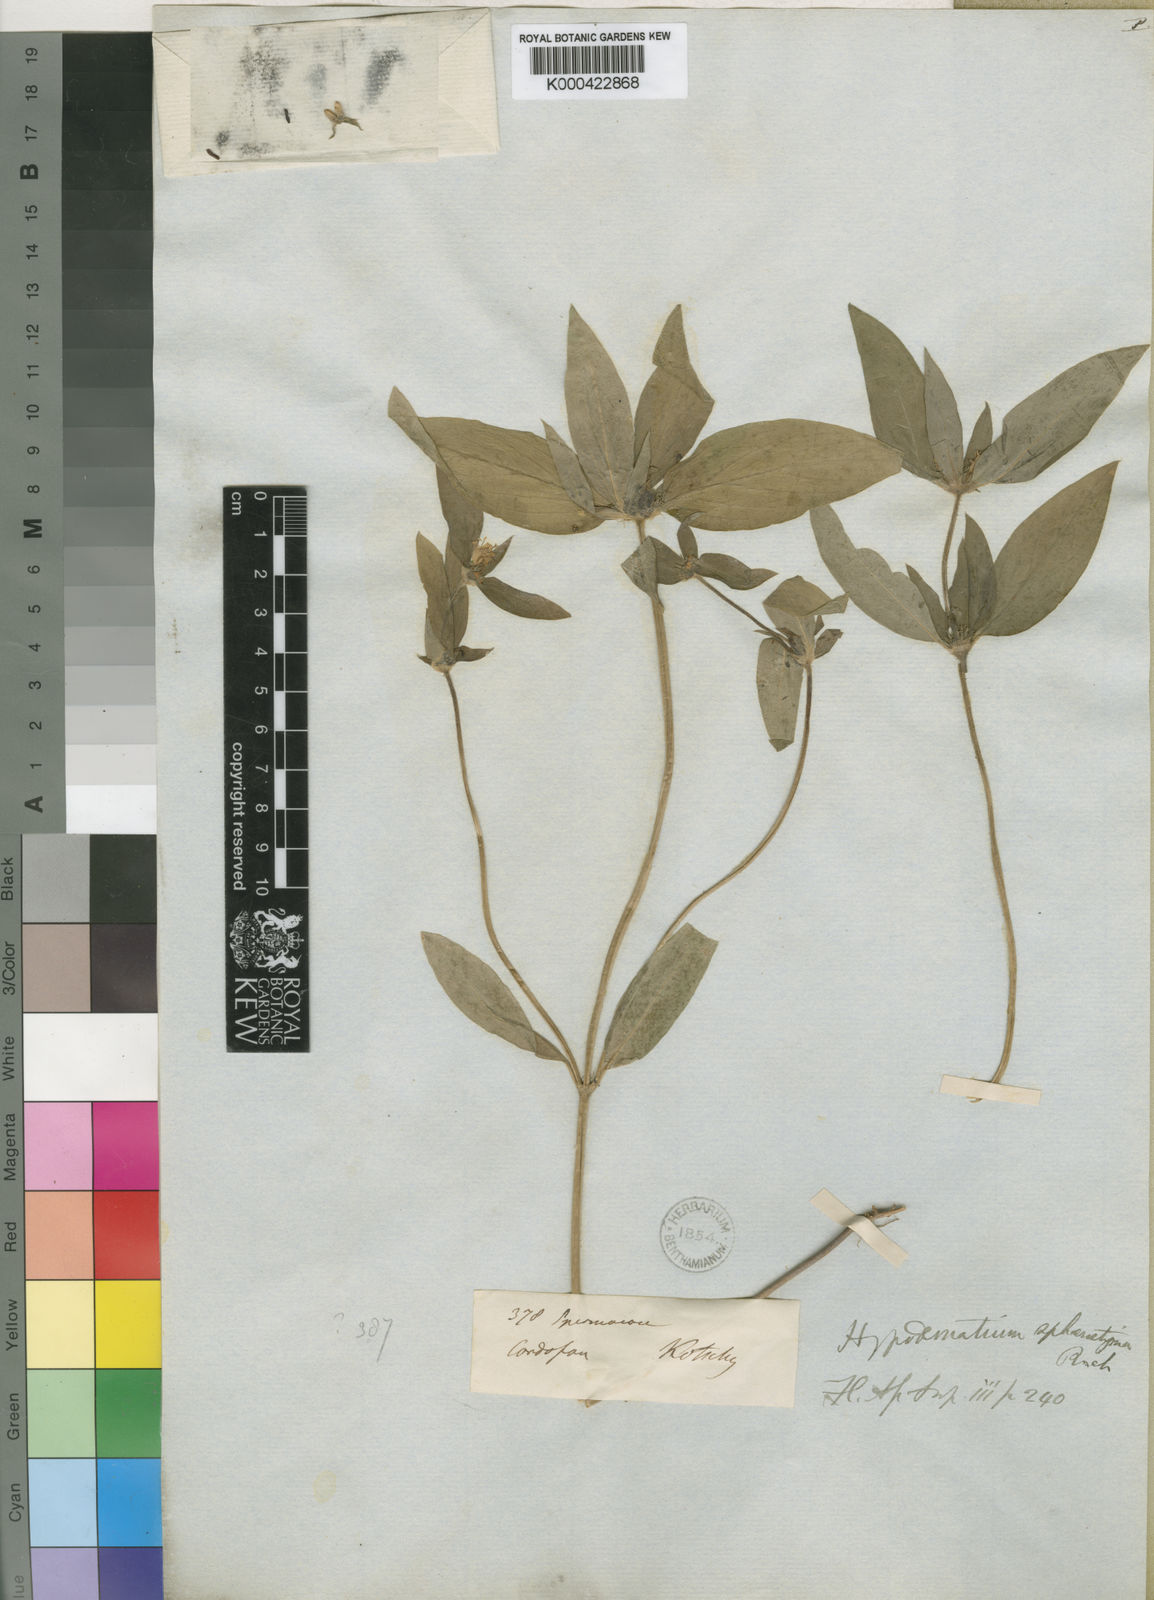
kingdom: Plantae
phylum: Tracheophyta
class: Magnoliopsida
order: Gentianales
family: Rubiaceae
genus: Spermacoce
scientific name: Spermacoce sphaerostigma
